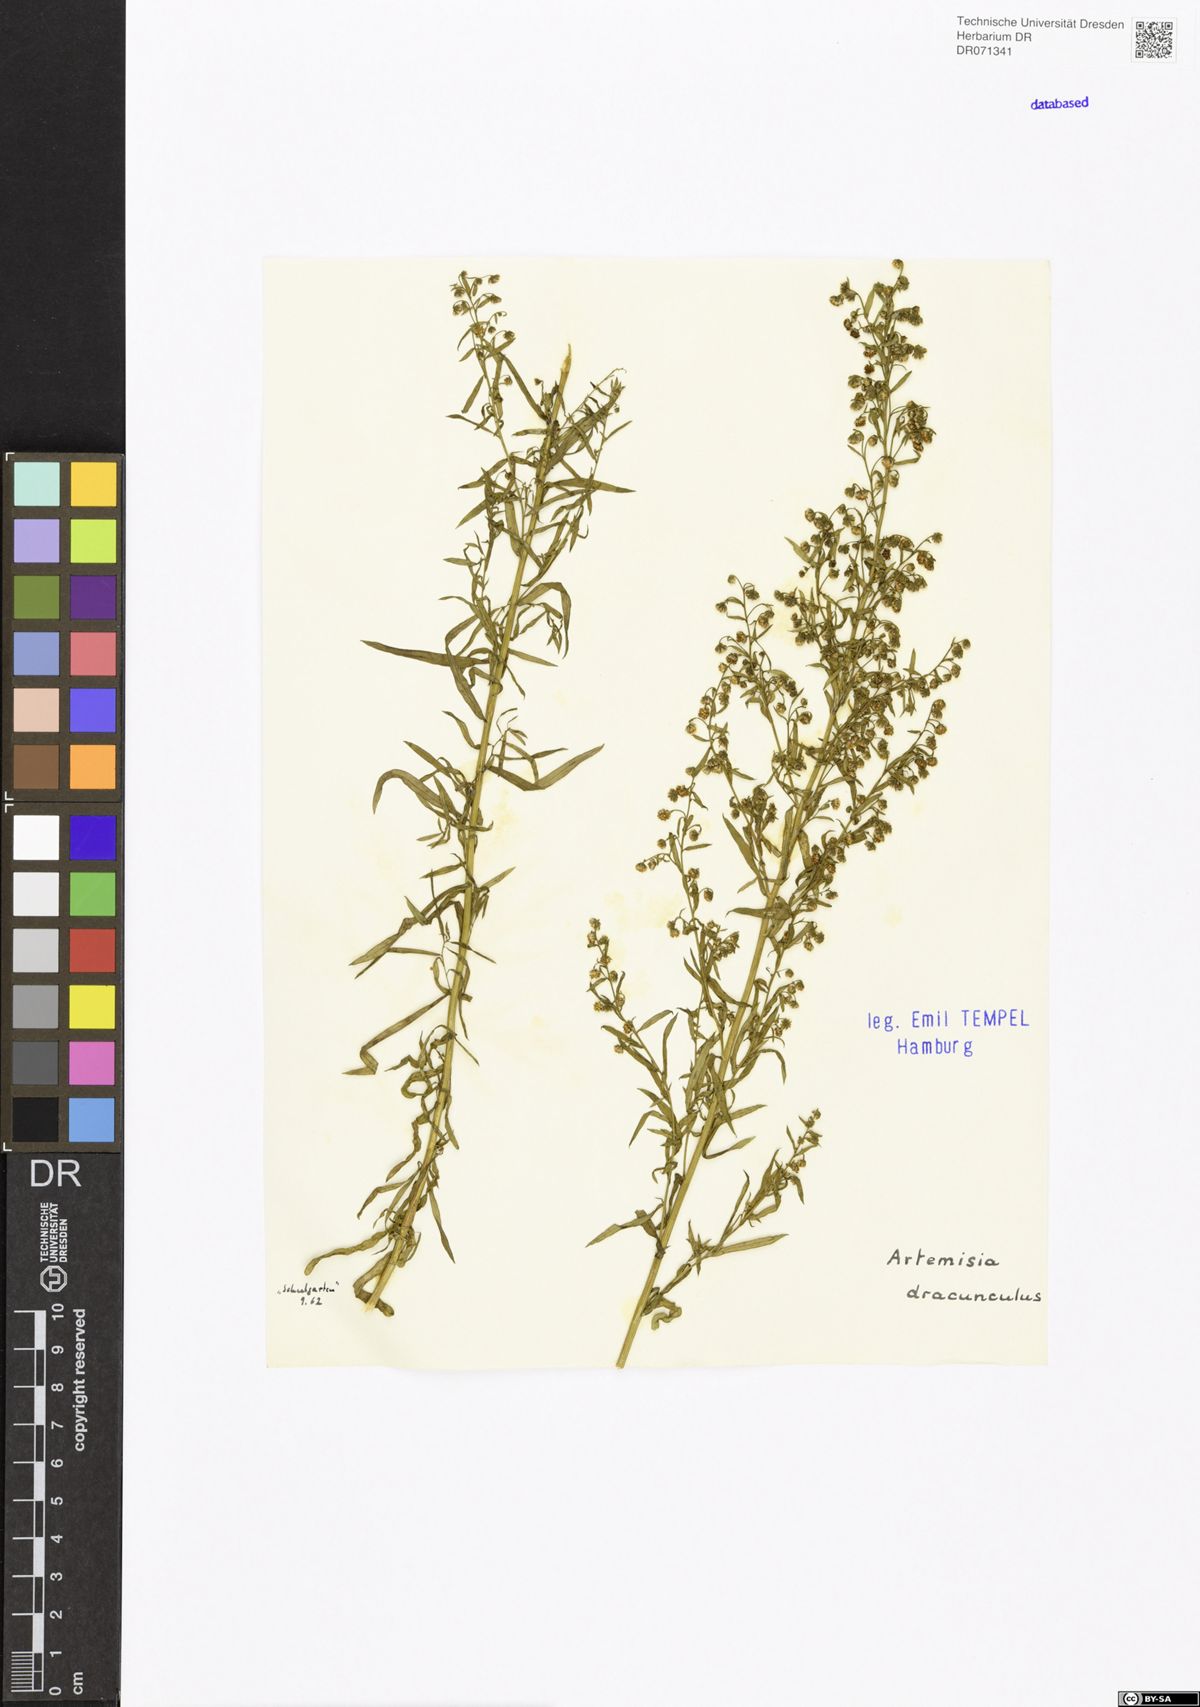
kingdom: Plantae
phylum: Tracheophyta
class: Magnoliopsida
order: Asterales
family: Asteraceae
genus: Artemisia
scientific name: Artemisia dracunculus
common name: Tarragon
